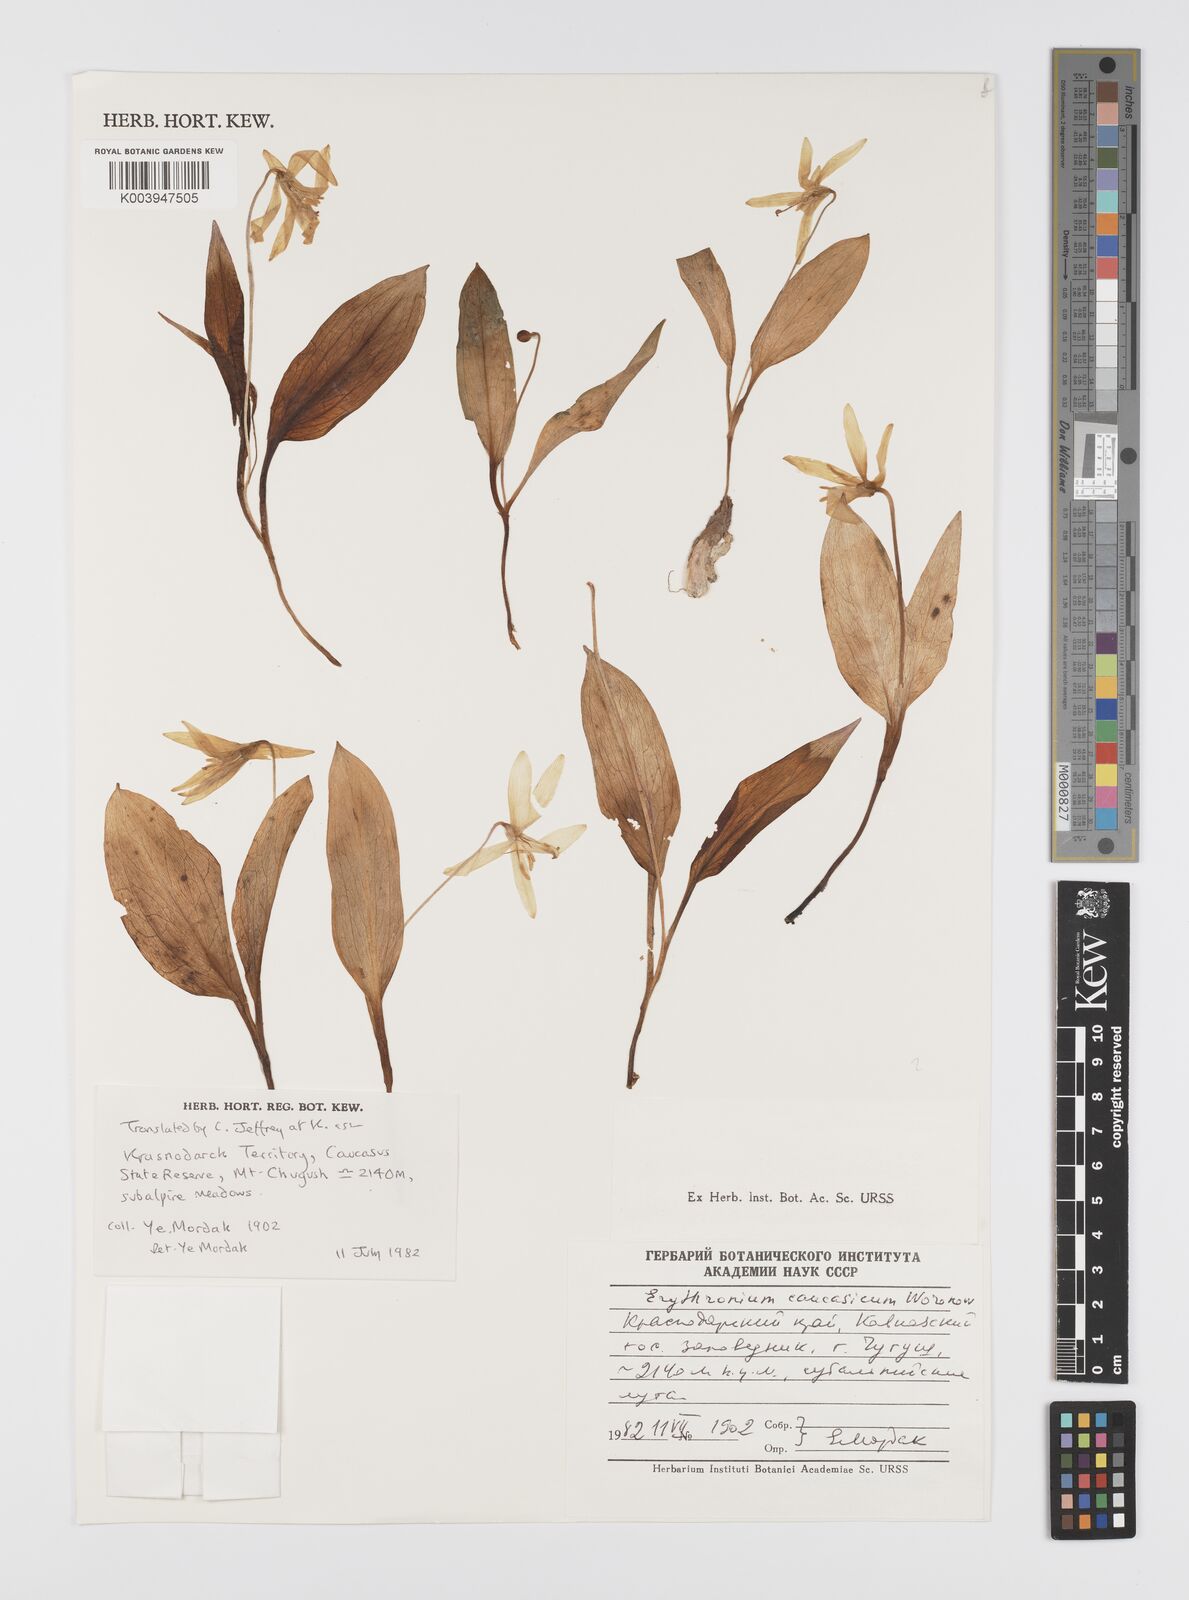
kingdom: Plantae
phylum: Tracheophyta
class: Liliopsida
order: Liliales
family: Liliaceae
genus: Erythronium
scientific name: Erythronium caucasicum
